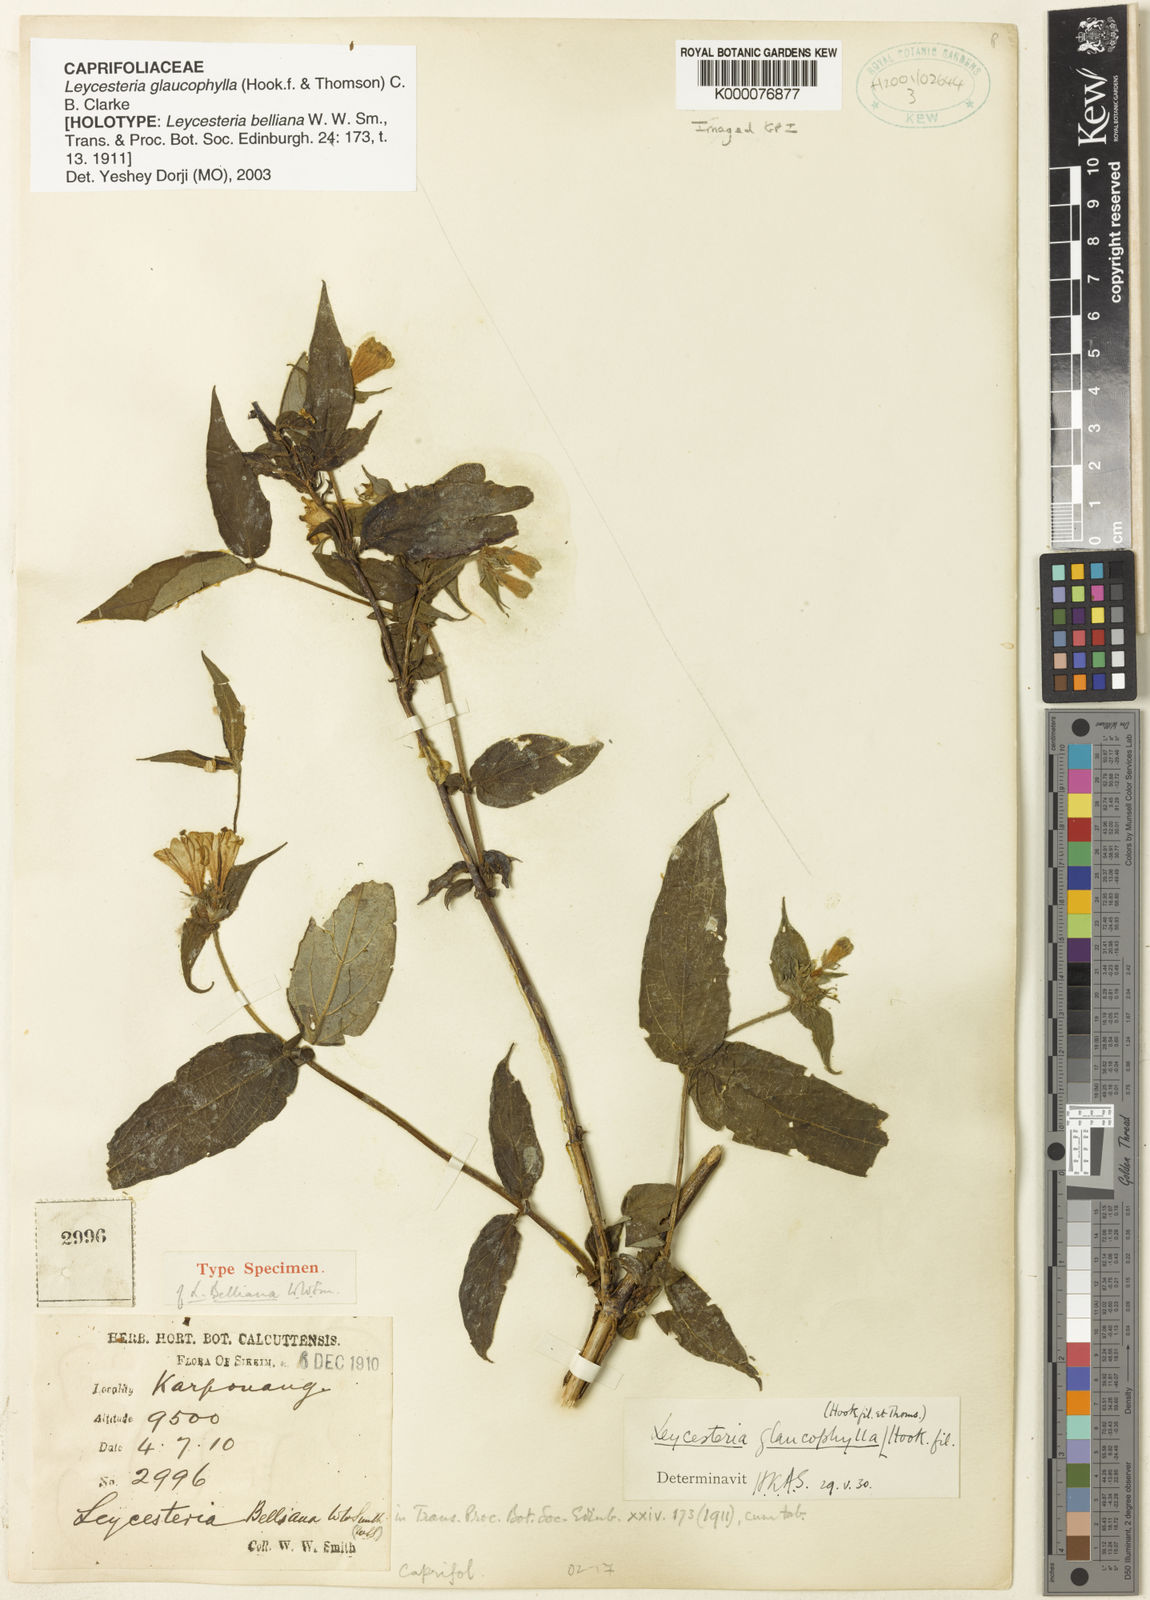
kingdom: Plantae
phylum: Tracheophyta
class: Magnoliopsida
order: Dipsacales
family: Caprifoliaceae
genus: Leycesteria
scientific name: Leycesteria glaucophylla
